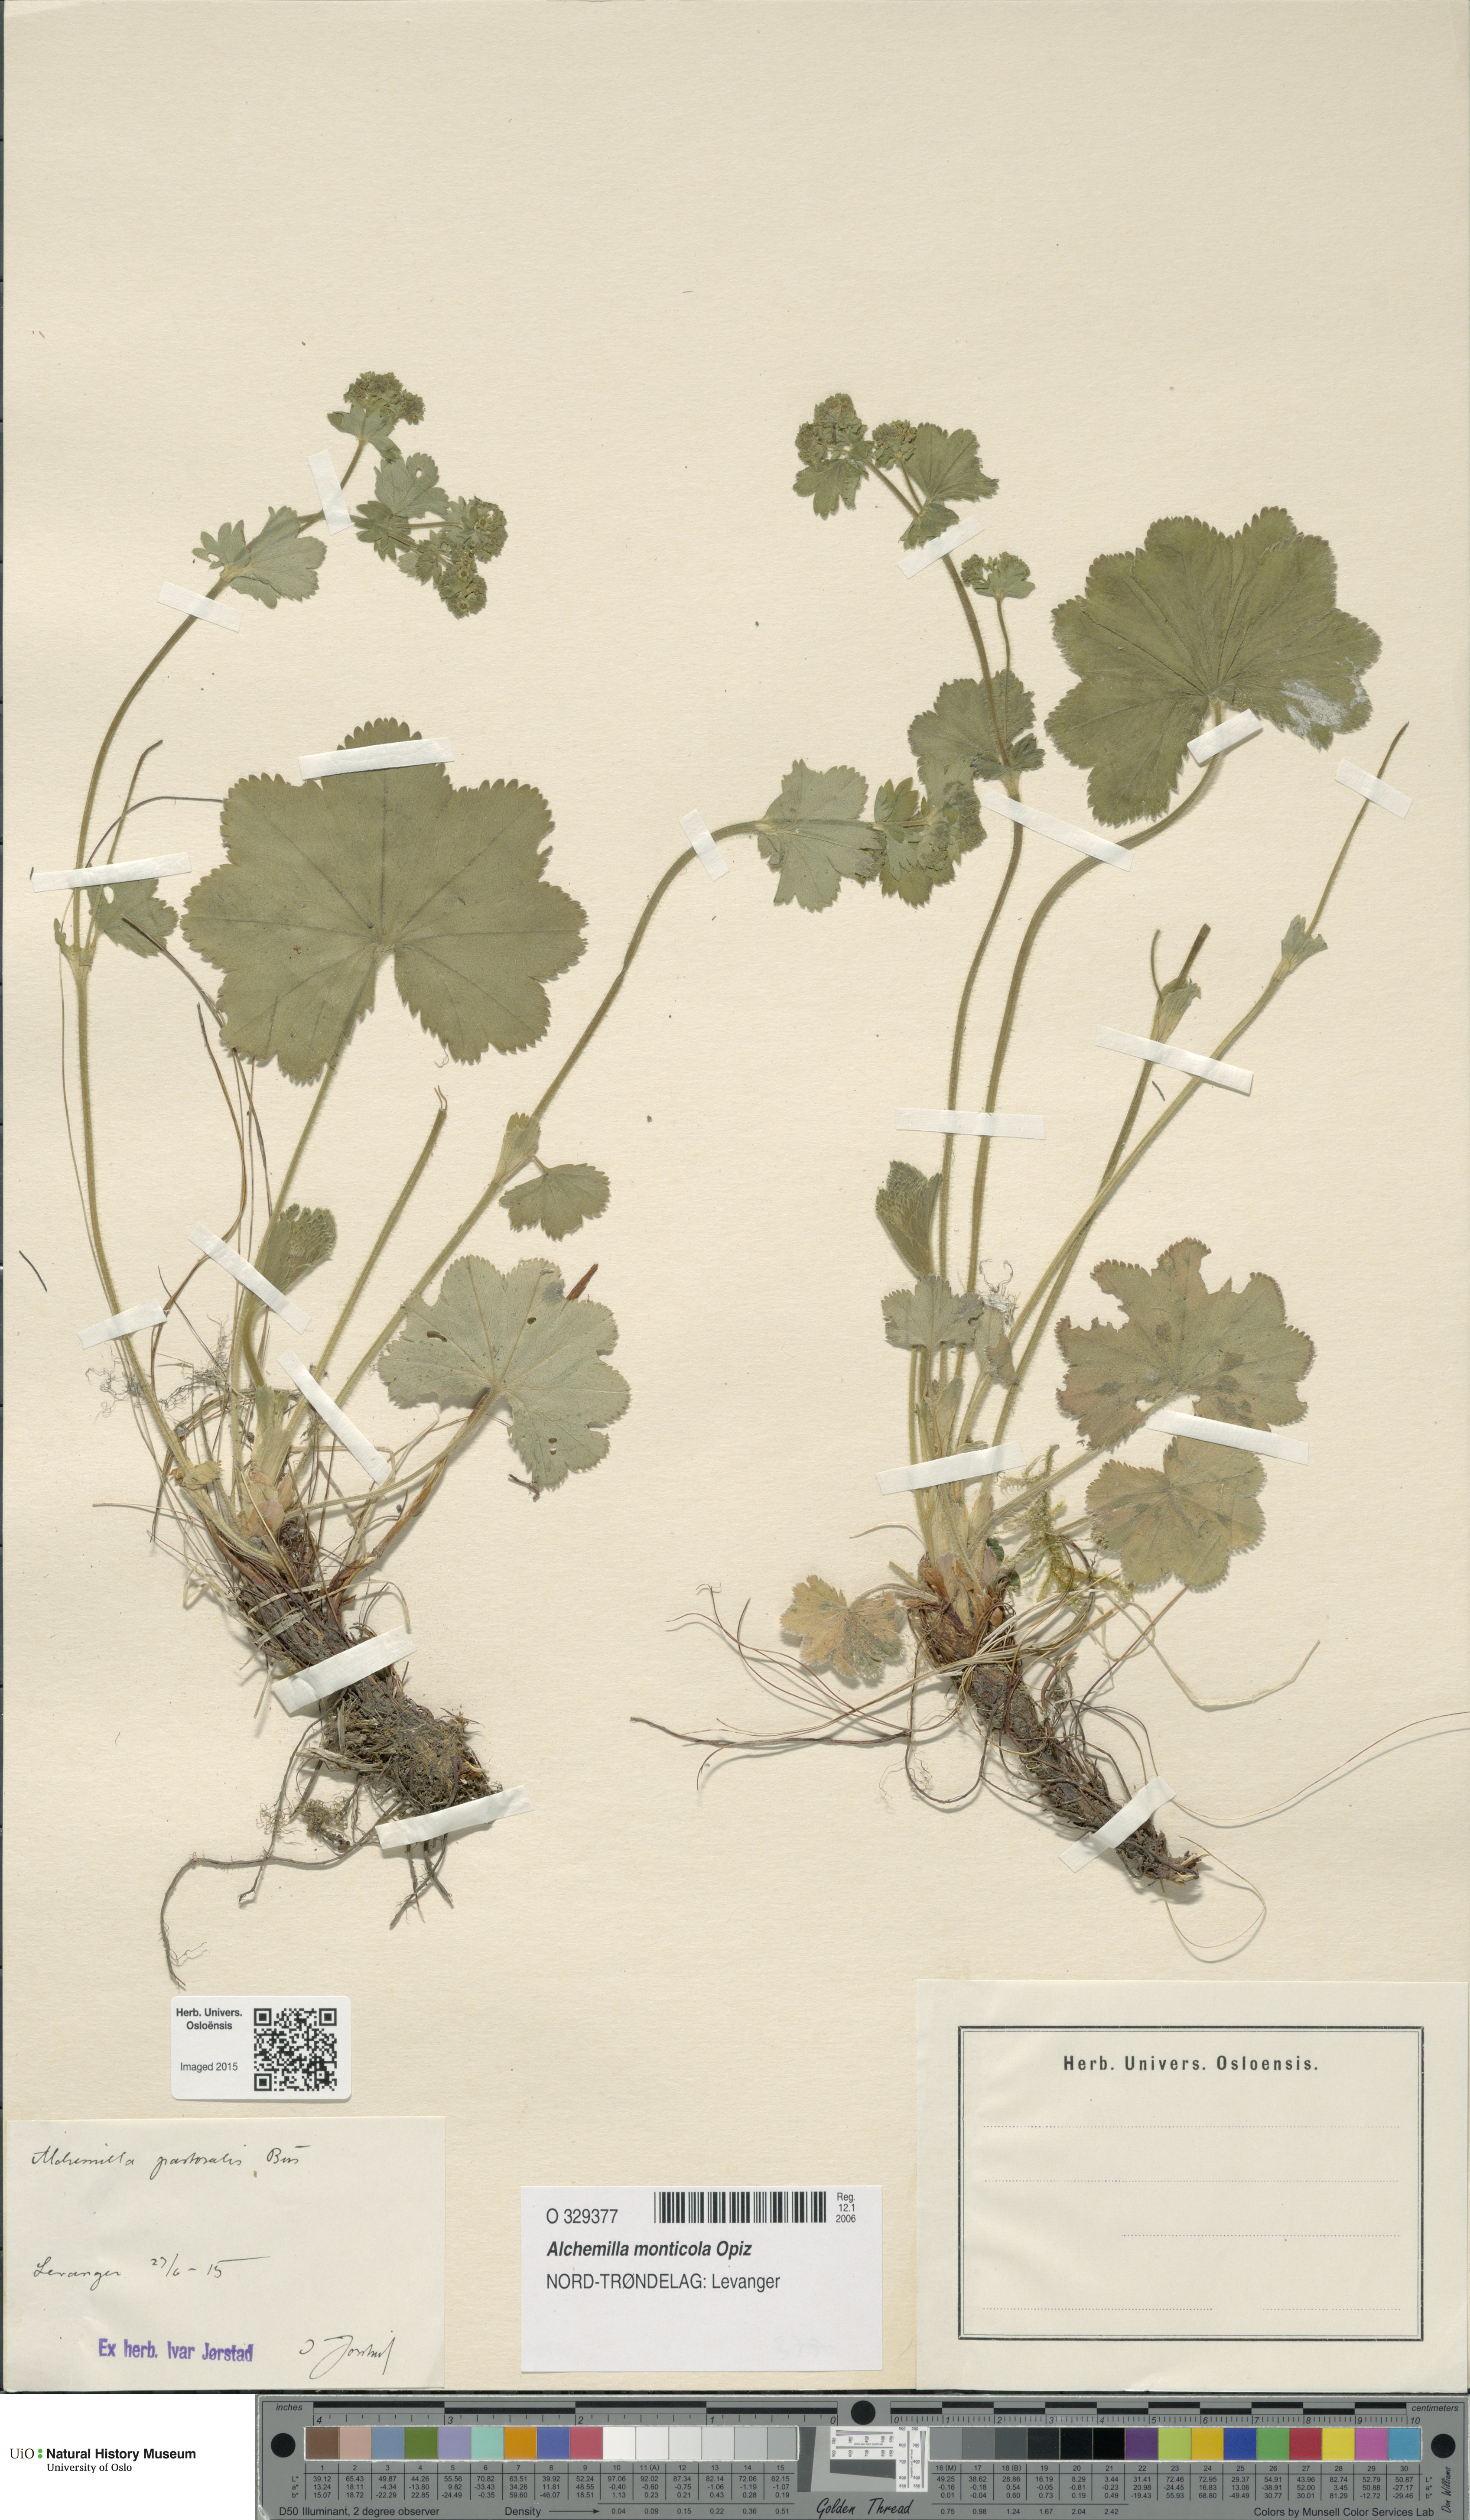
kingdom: Plantae
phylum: Tracheophyta
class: Magnoliopsida
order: Rosales
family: Rosaceae
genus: Alchemilla
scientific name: Alchemilla monticola
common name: Hairy lady's mantle
